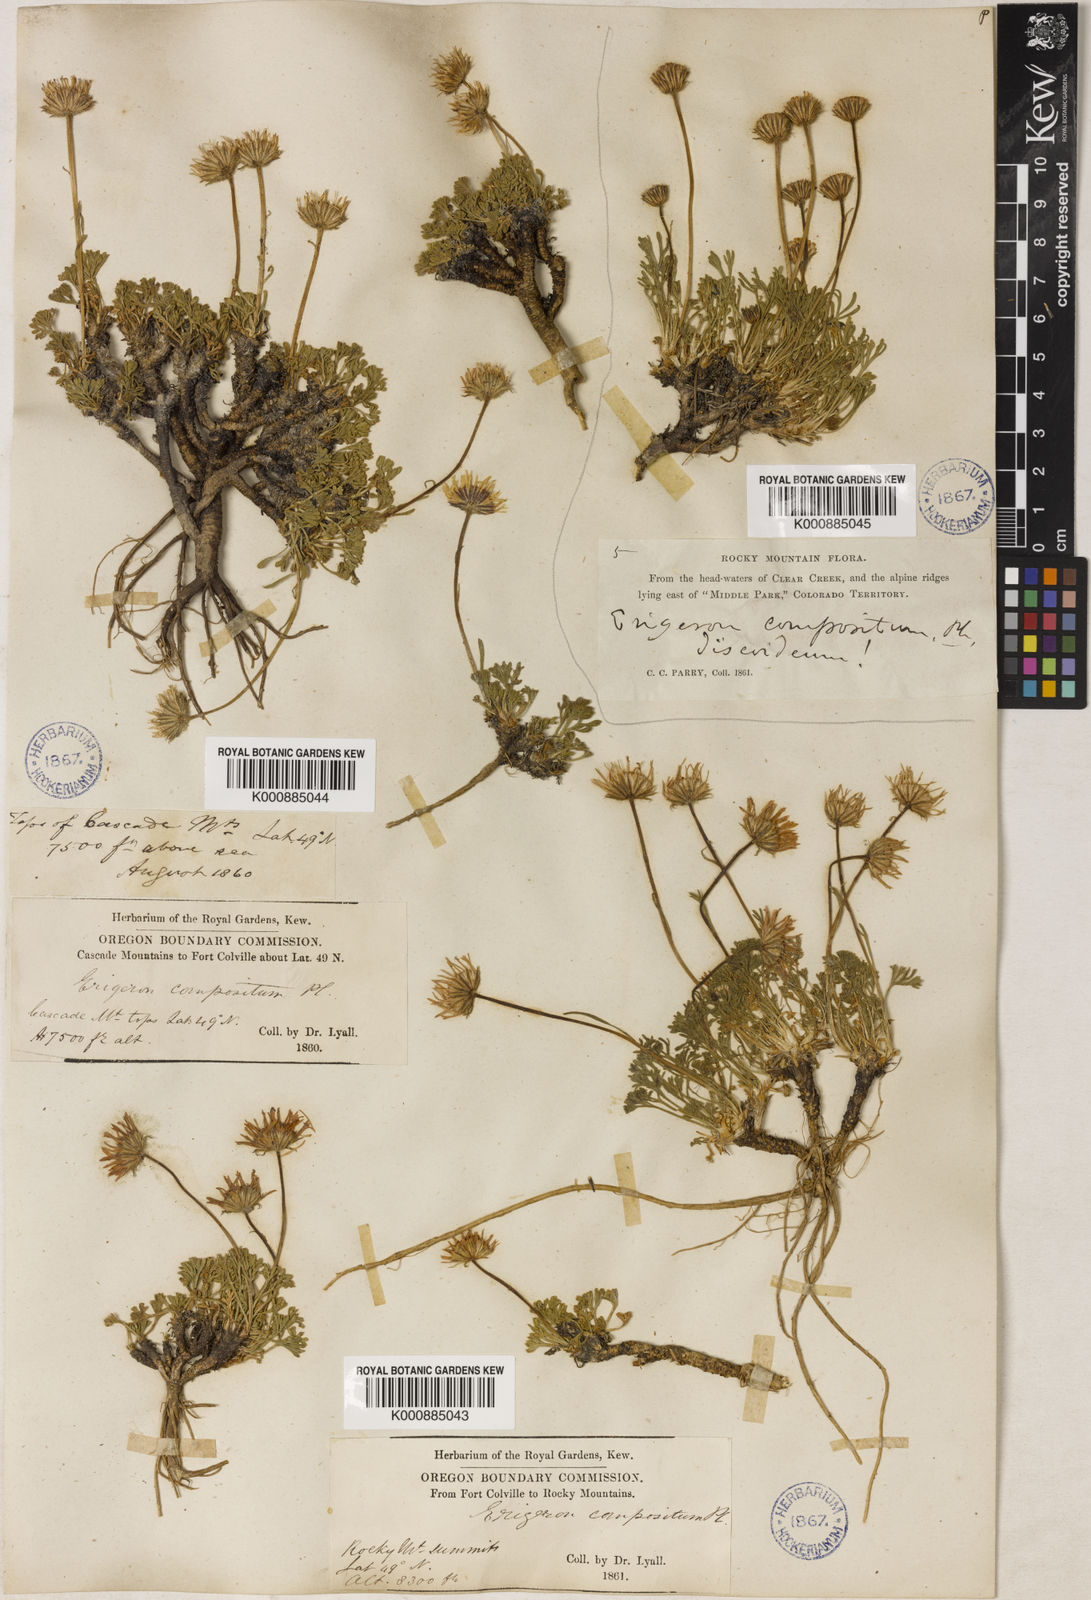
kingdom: Plantae
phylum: Tracheophyta
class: Magnoliopsida
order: Asterales
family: Asteraceae
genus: Erigeron
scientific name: Erigeron compositus
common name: Dwarf mountain fleabane
